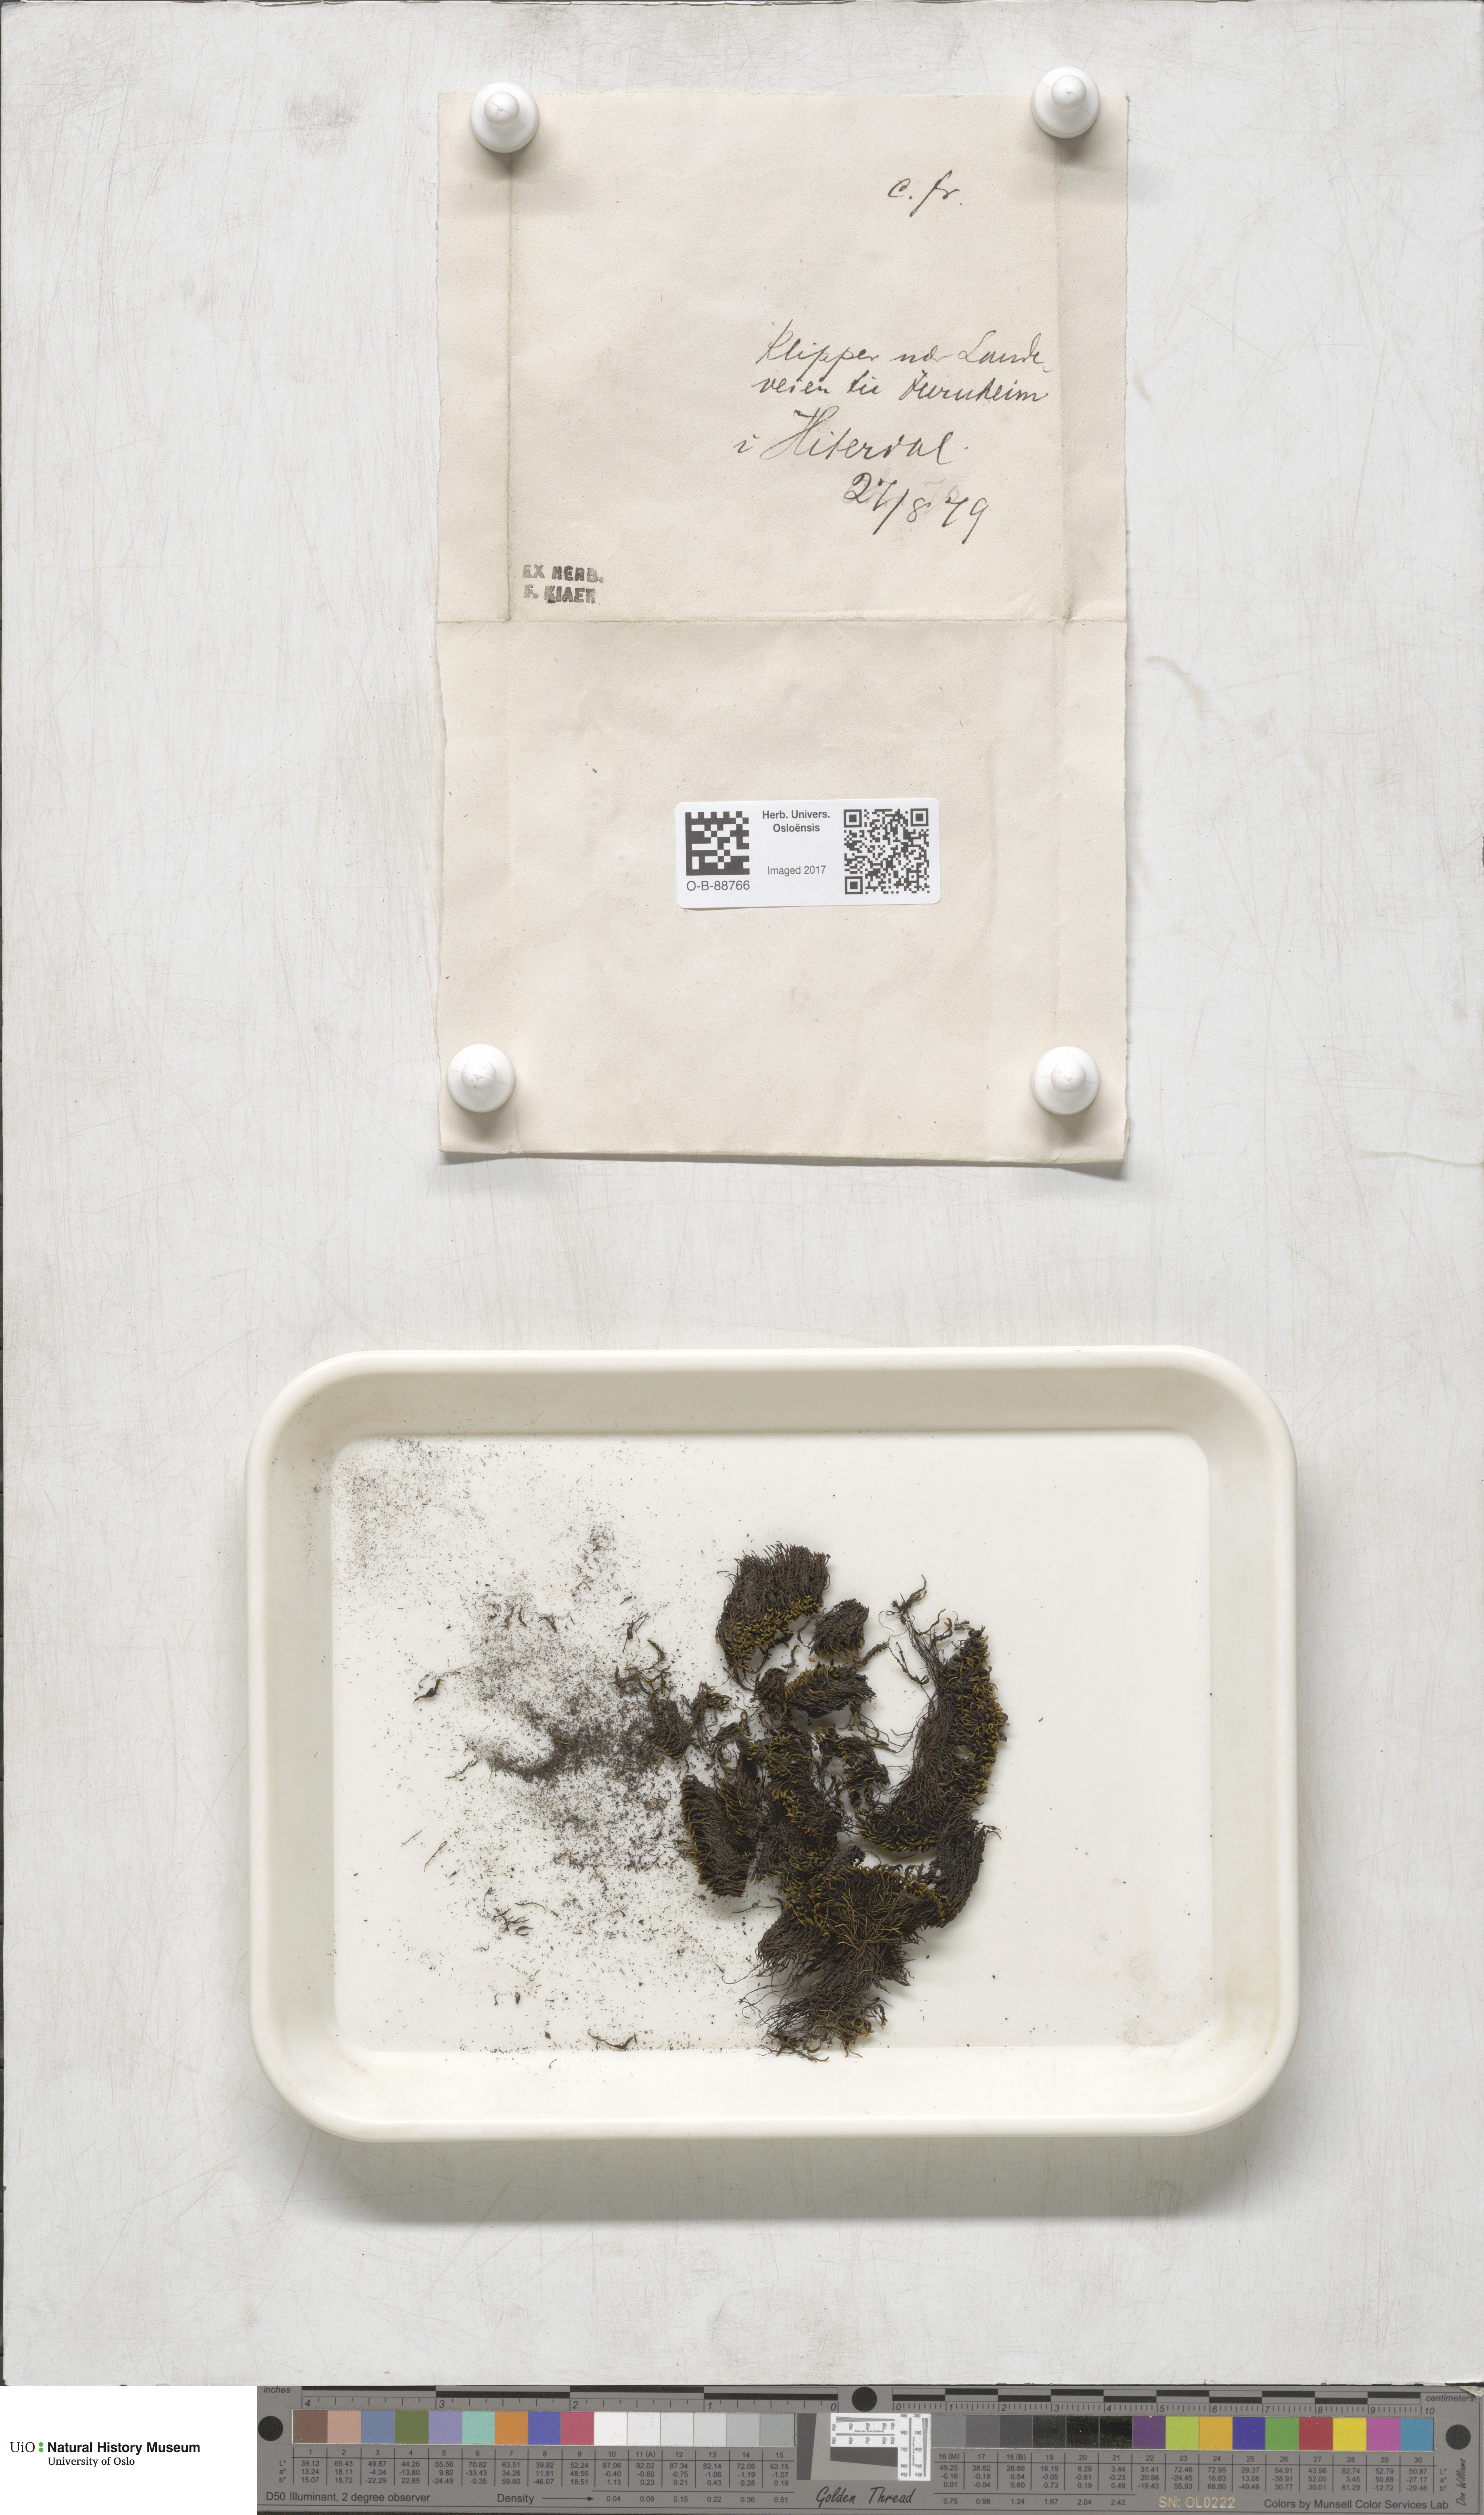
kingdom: Plantae
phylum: Bryophyta
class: Bryopsida
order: Grimmiales
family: Grimmiaceae
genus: Grimmia
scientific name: Grimmia unicolor
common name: Dingy grimmia
